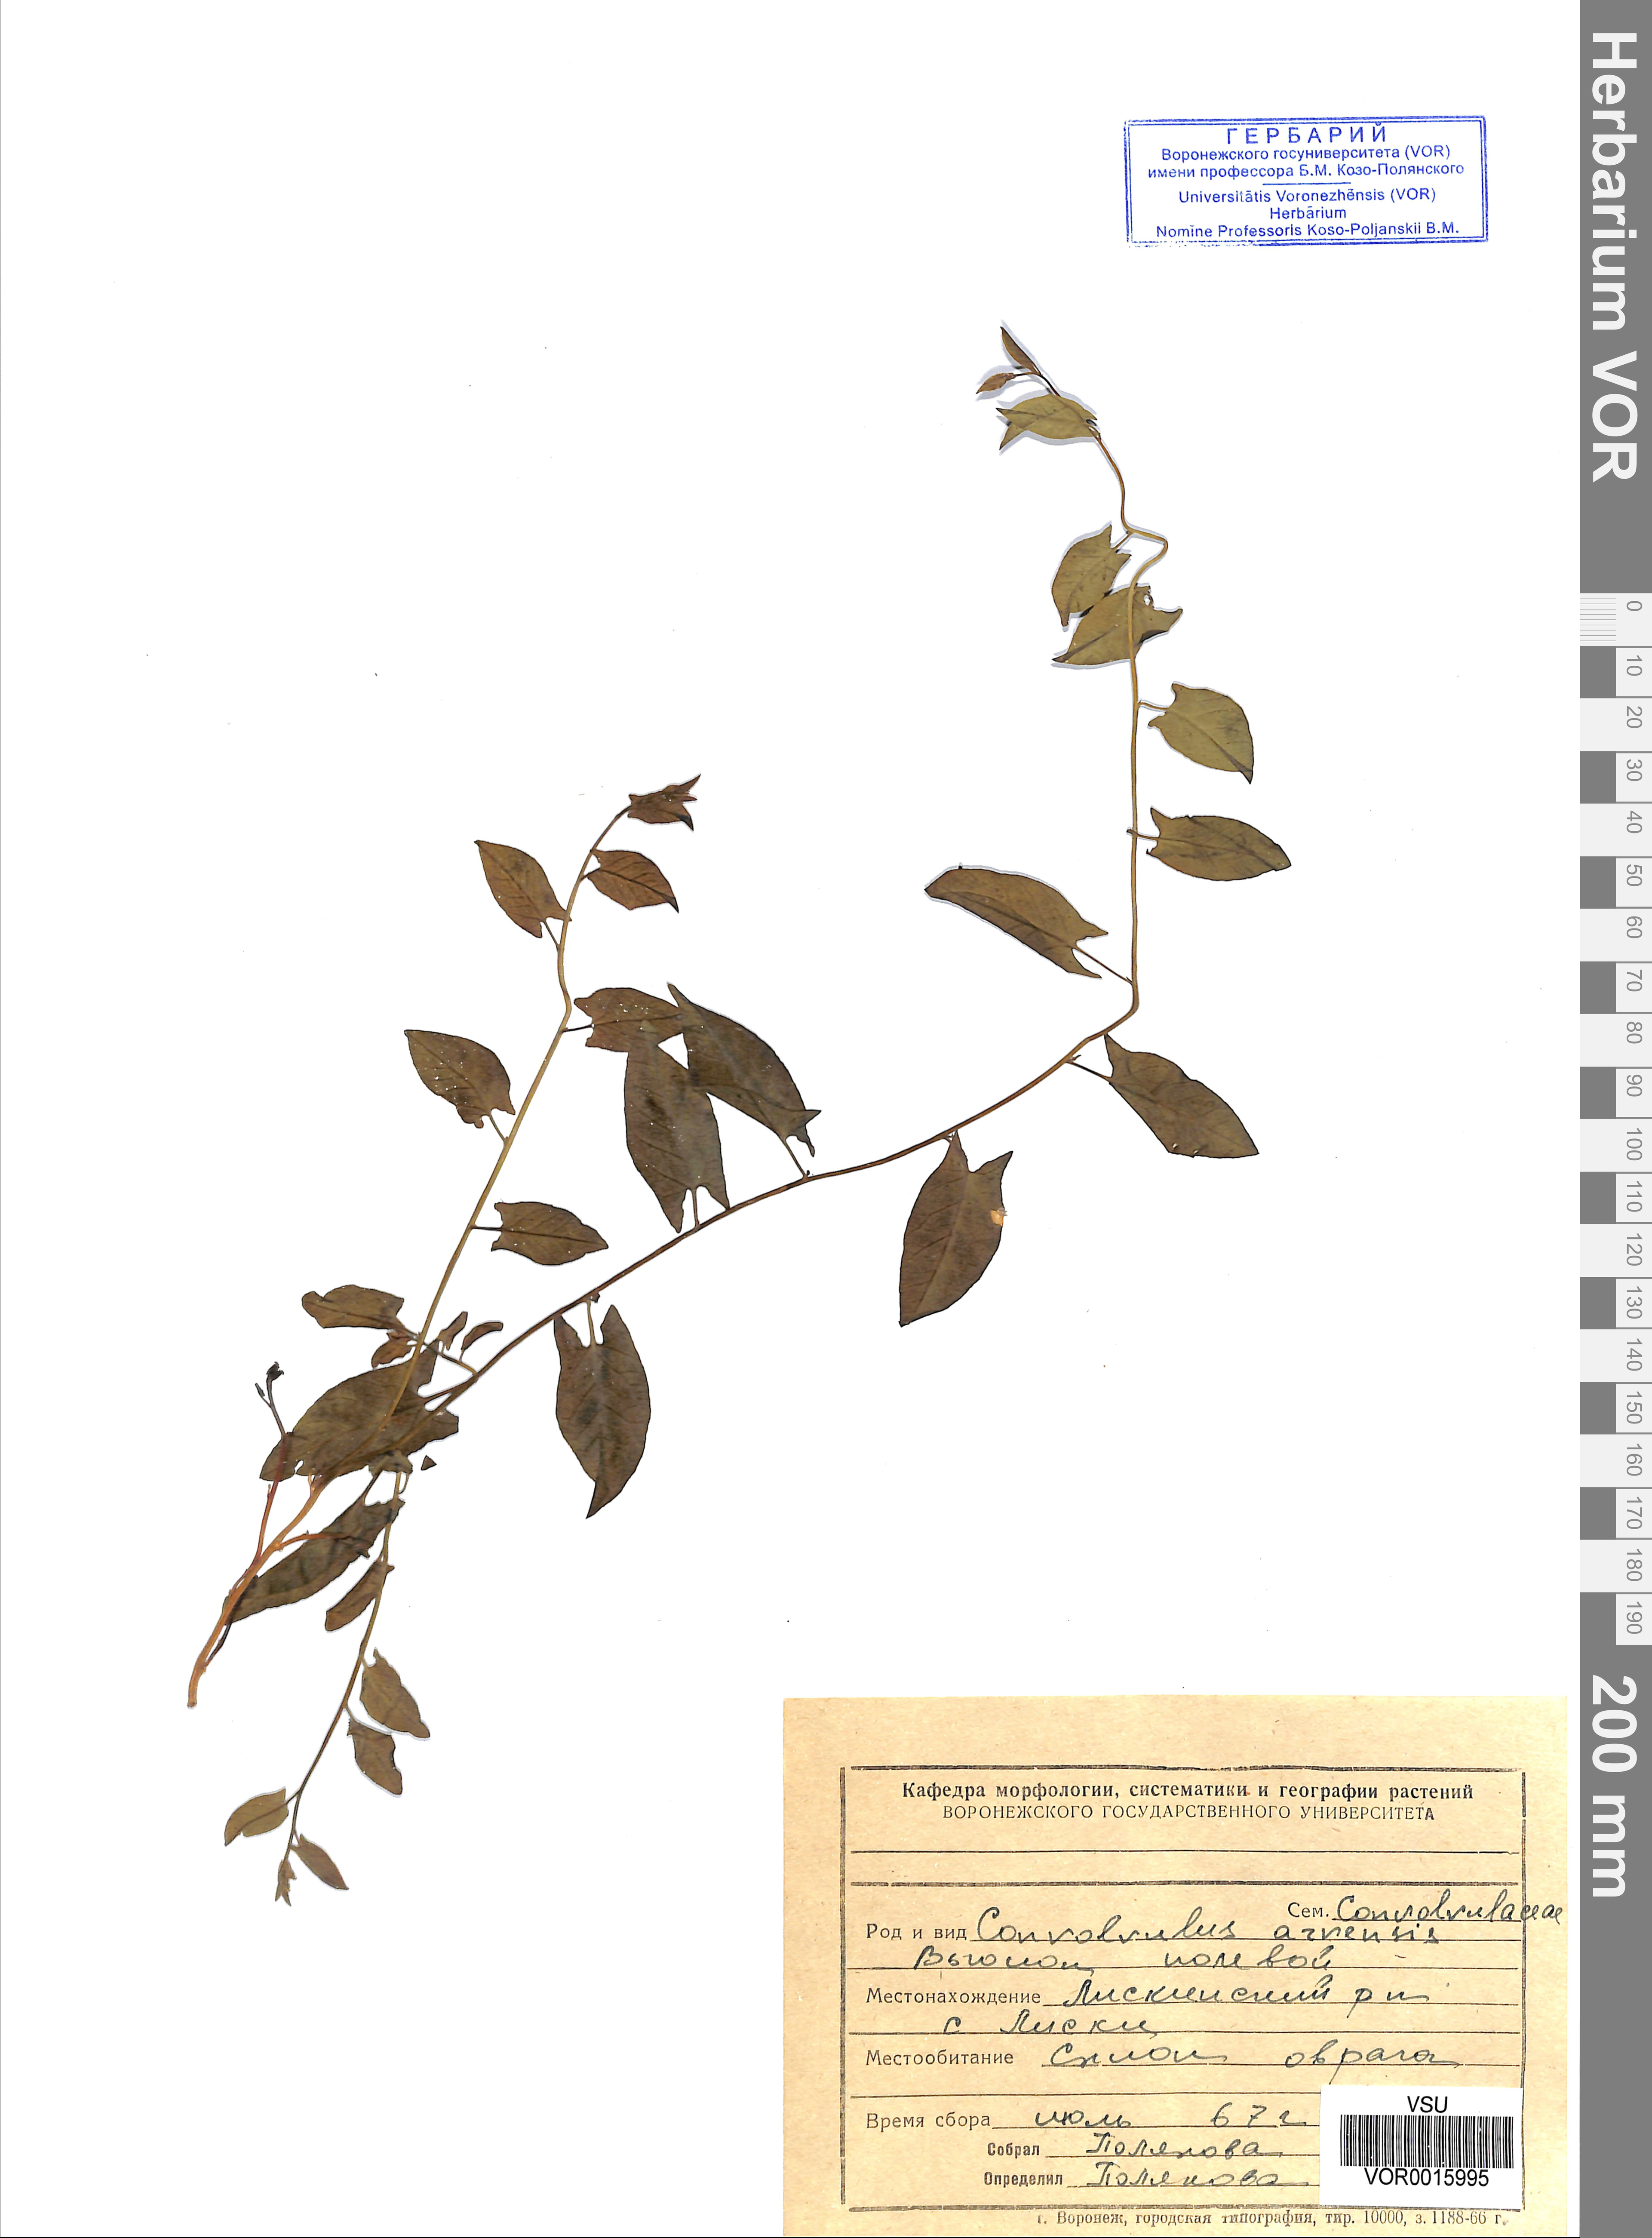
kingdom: Plantae
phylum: Tracheophyta
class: Magnoliopsida
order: Solanales
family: Convolvulaceae
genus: Convolvulus
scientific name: Convolvulus arvensis
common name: Field bindweed
